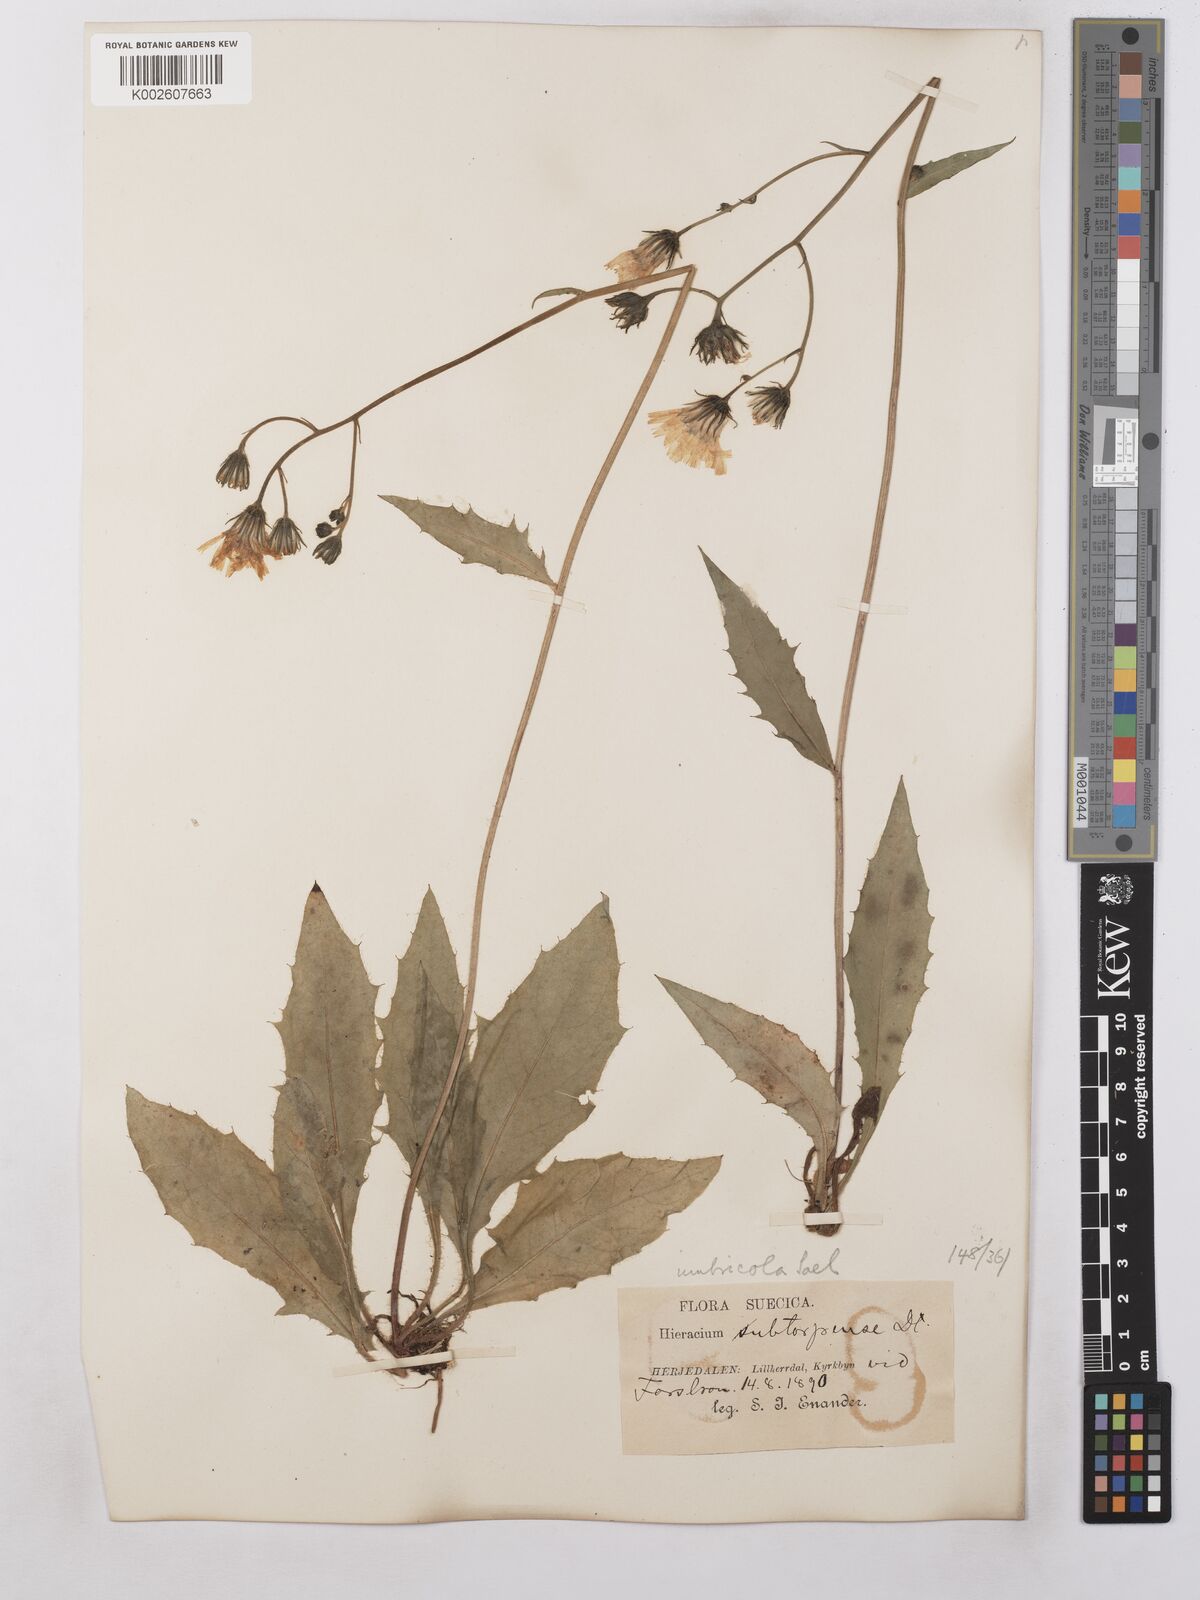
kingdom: Plantae
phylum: Tracheophyta
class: Magnoliopsida
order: Asterales
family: Asteraceae
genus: Hieracium
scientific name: Hieracium subramosum
